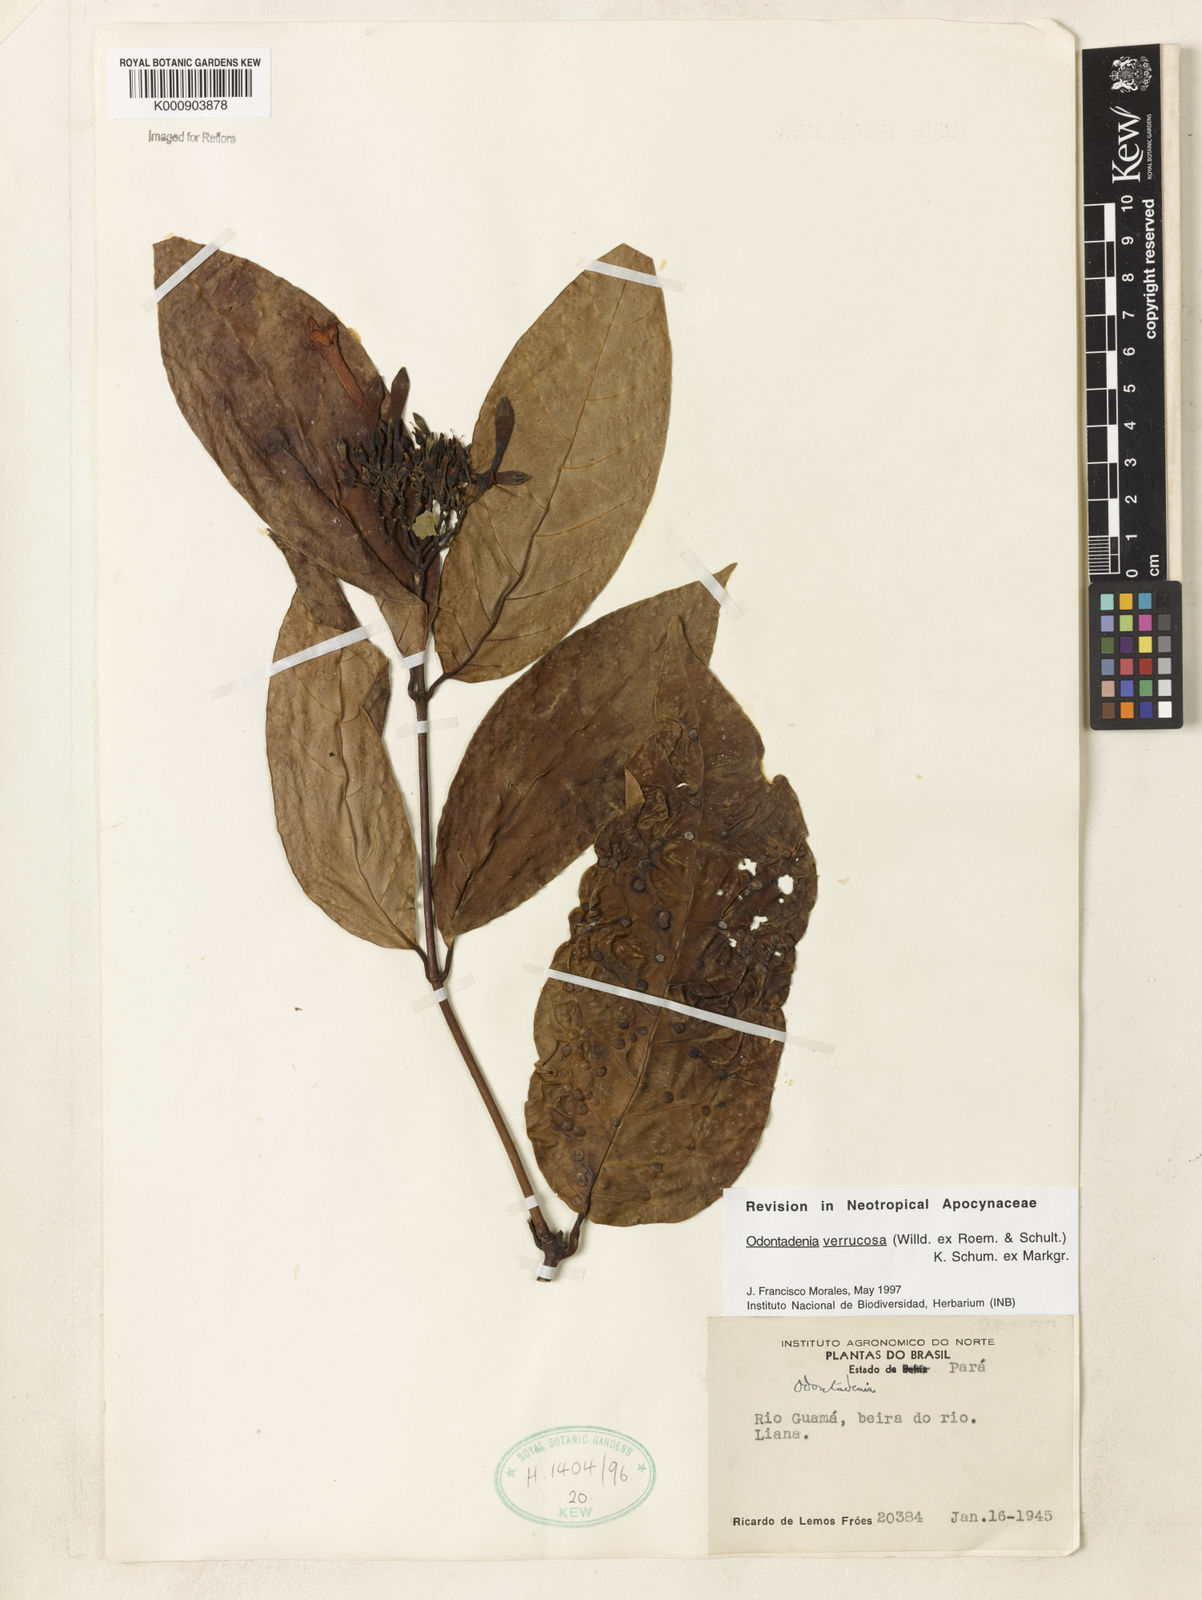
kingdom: Plantae
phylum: Tracheophyta
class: Magnoliopsida
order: Gentianales
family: Apocynaceae
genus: Odontadenia
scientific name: Odontadenia verrucosa
